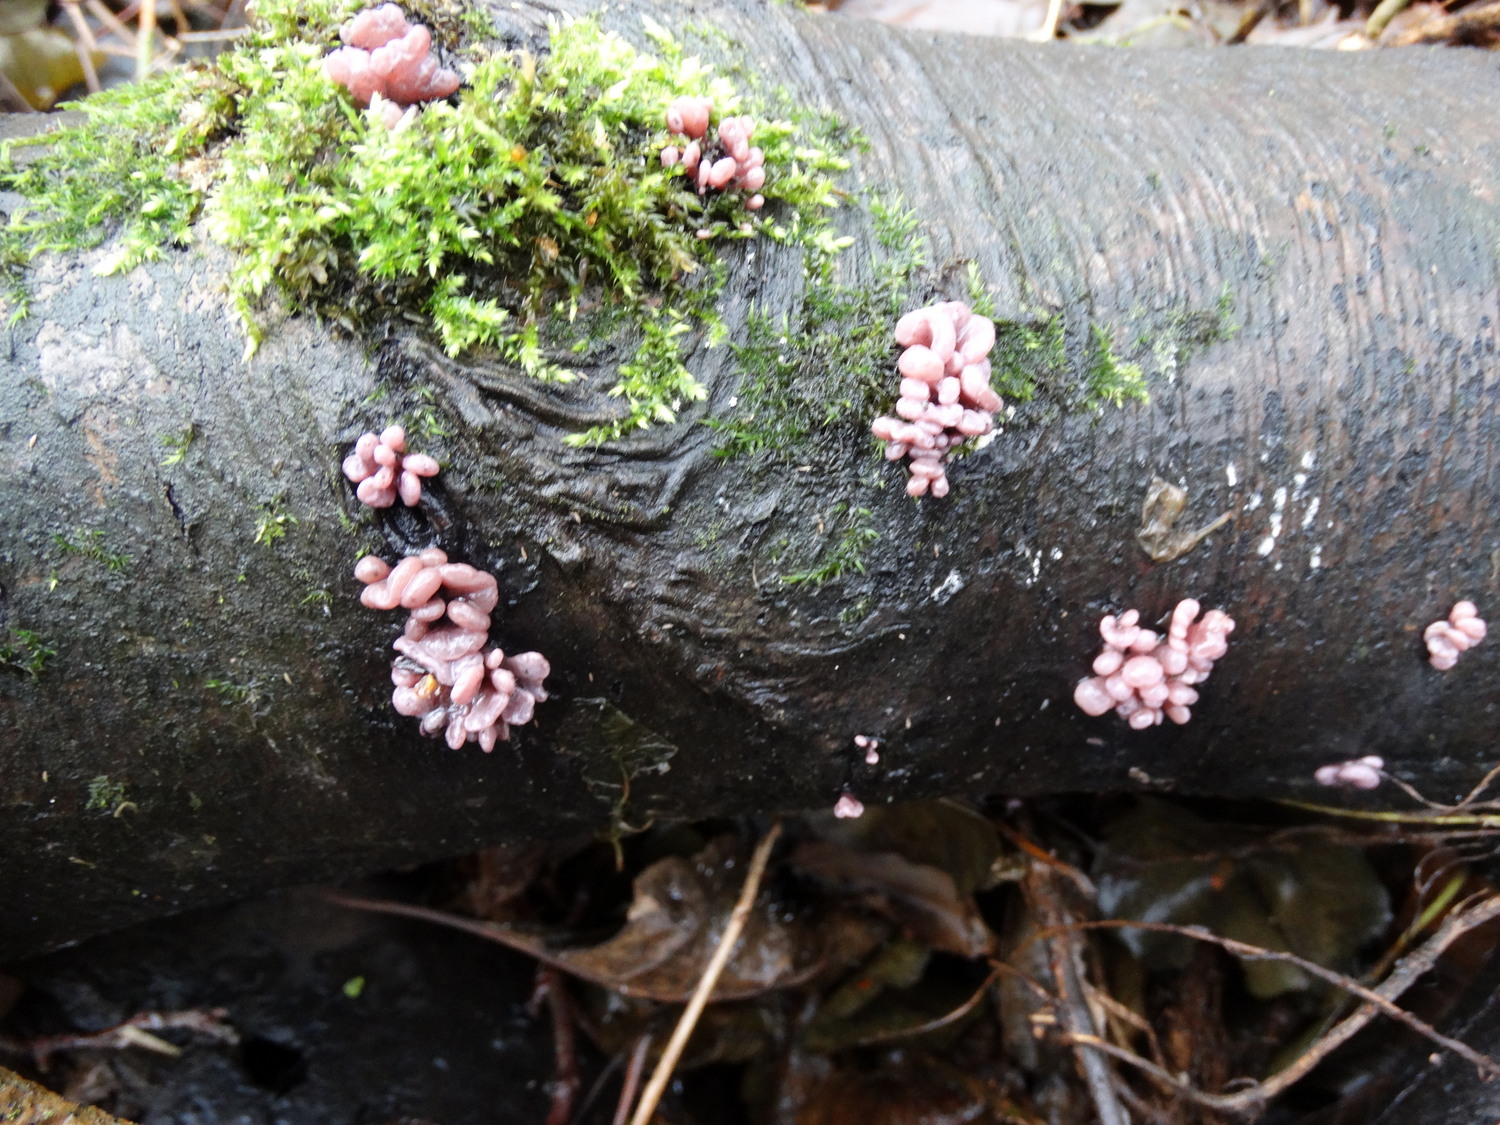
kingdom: Fungi
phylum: Ascomycota
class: Leotiomycetes
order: Helotiales
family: Gelatinodiscaceae
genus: Ascocoryne
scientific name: Ascocoryne sarcoides
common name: rødlilla sejskive
